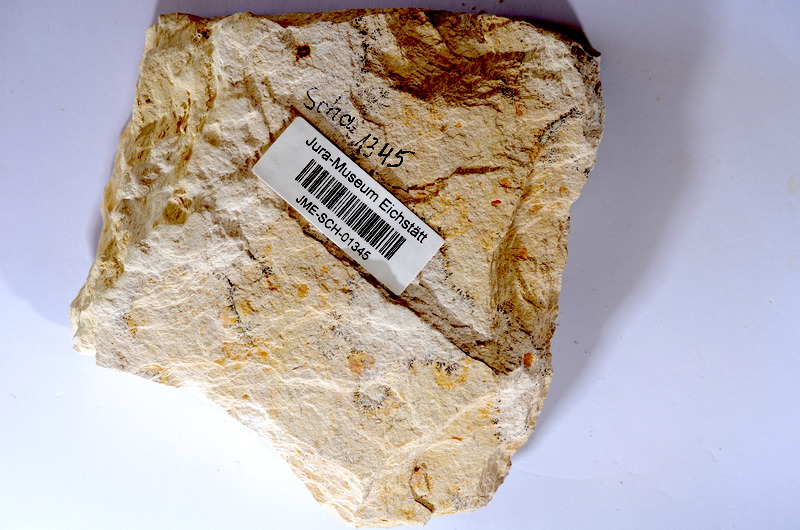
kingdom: Animalia
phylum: Chordata
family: Ascalaboidae
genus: Tharsis
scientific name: Tharsis dubius
